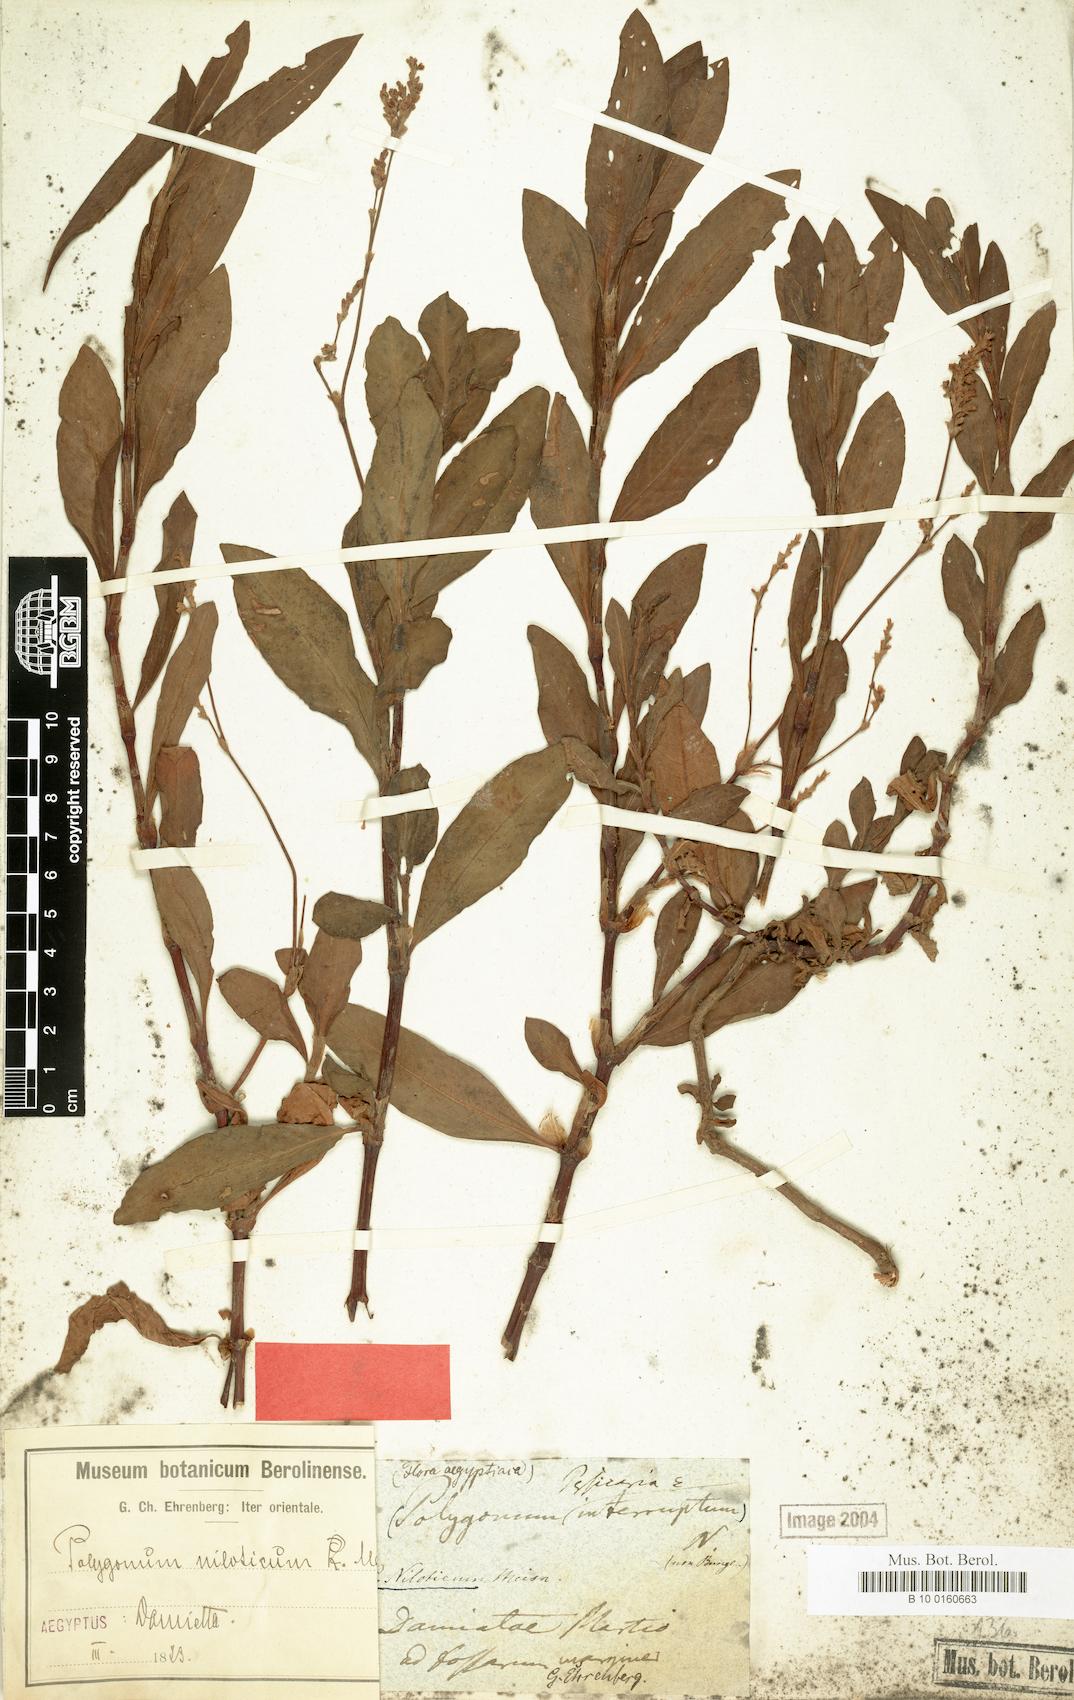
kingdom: Plantae
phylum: Tracheophyta
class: Magnoliopsida
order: Caryophyllales
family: Polygonaceae
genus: Persicaria
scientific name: Persicaria maculosa
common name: Redshank
